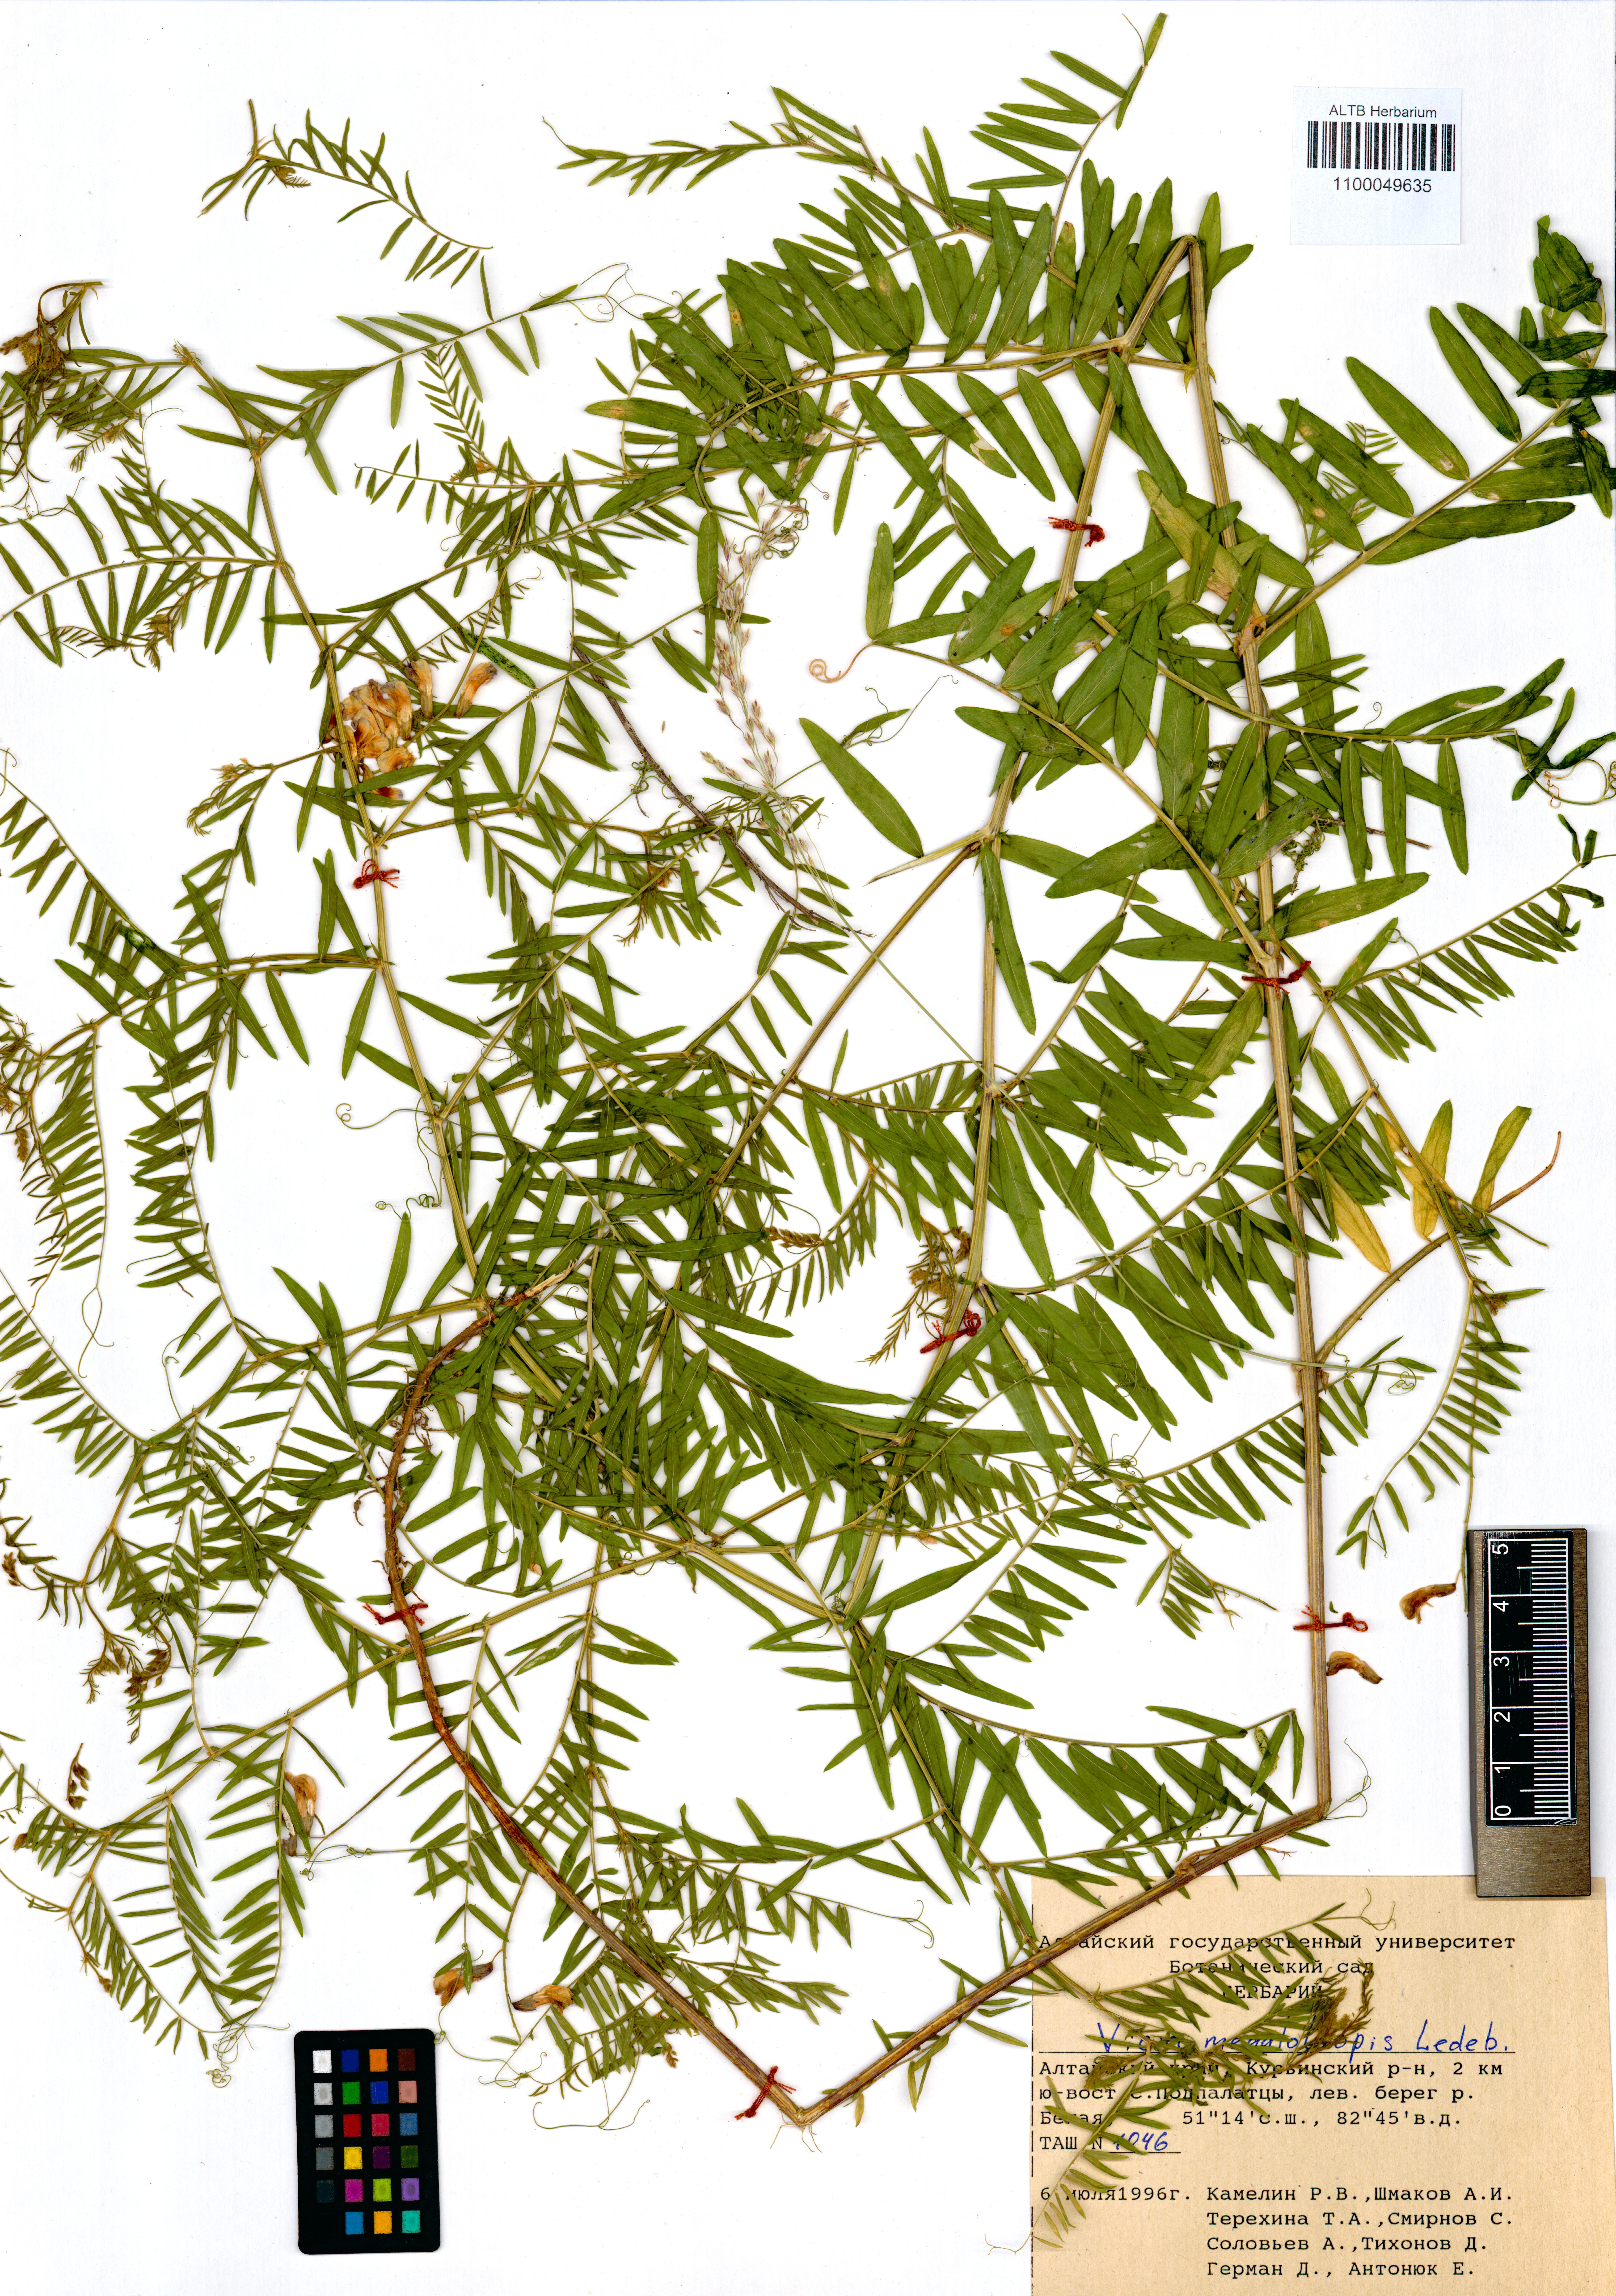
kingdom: Plantae
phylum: Tracheophyta
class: Magnoliopsida
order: Fabales
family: Fabaceae
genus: Vicia
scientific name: Vicia megalotropis
